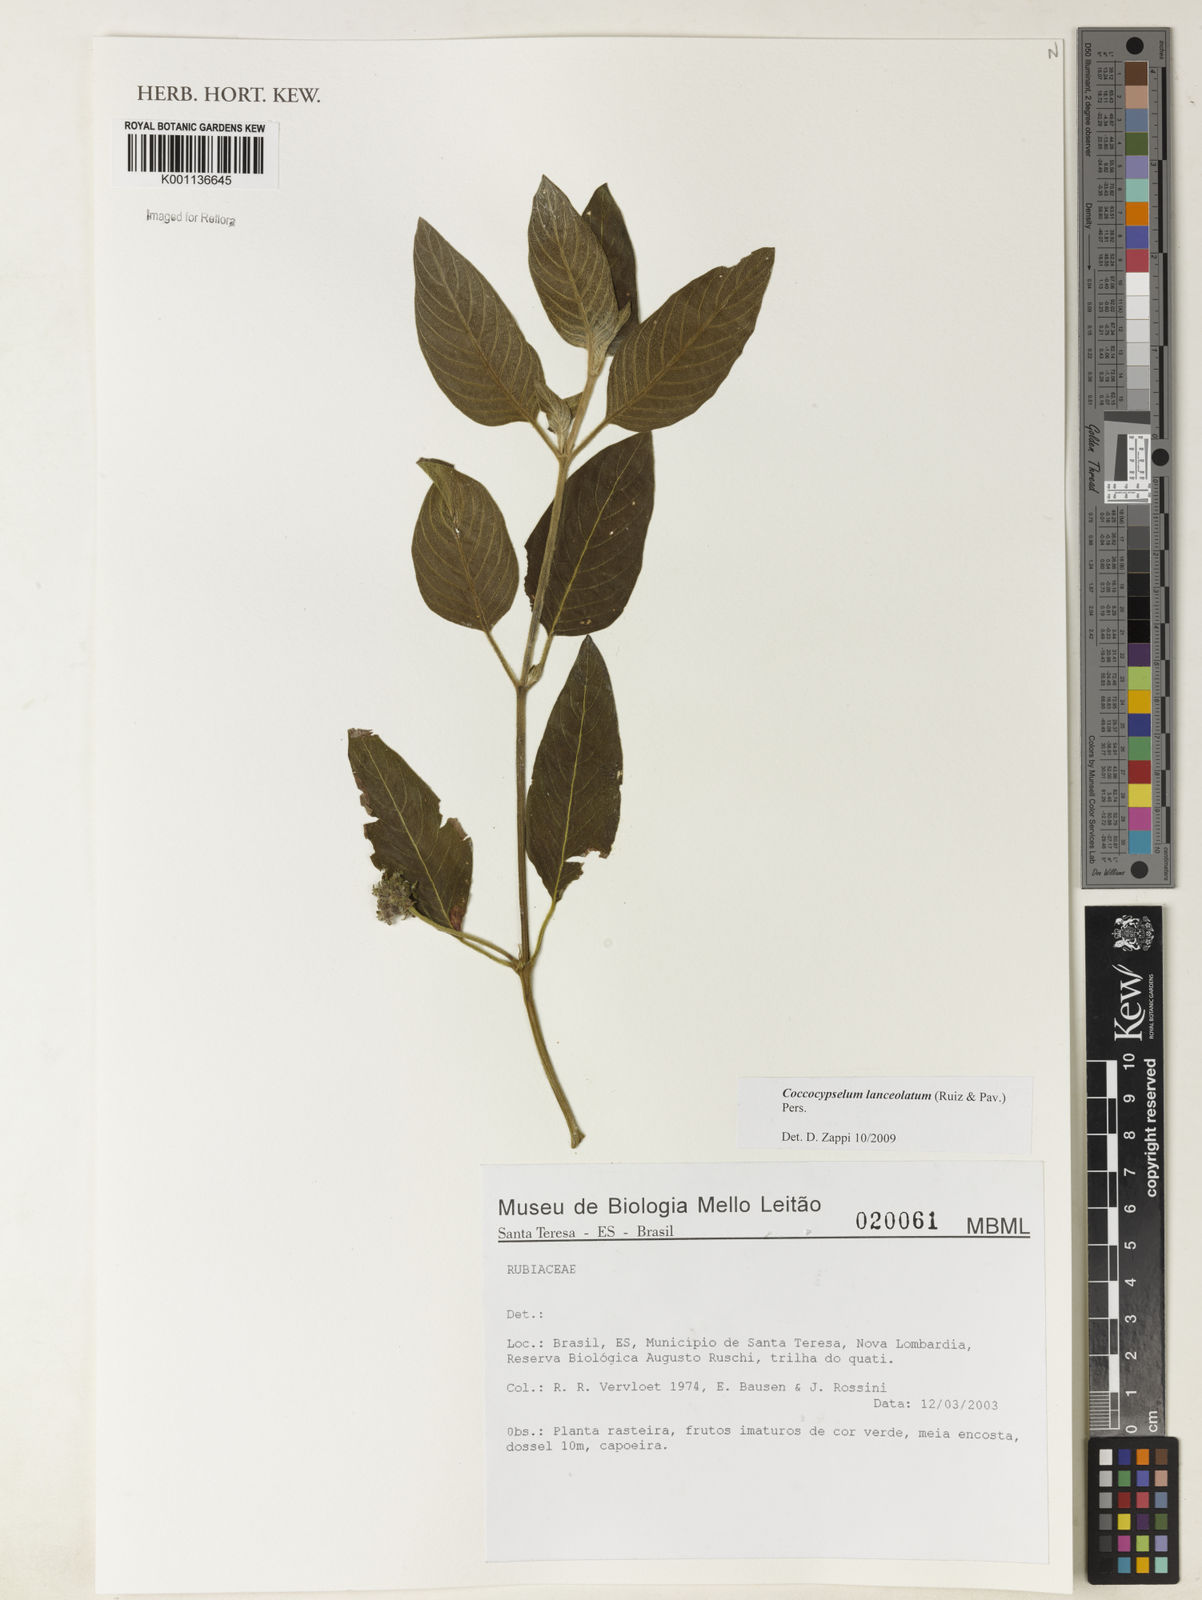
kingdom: Plantae
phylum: Tracheophyta
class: Magnoliopsida
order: Gentianales
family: Rubiaceae
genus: Coccocypselum
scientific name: Coccocypselum lanceolatum
